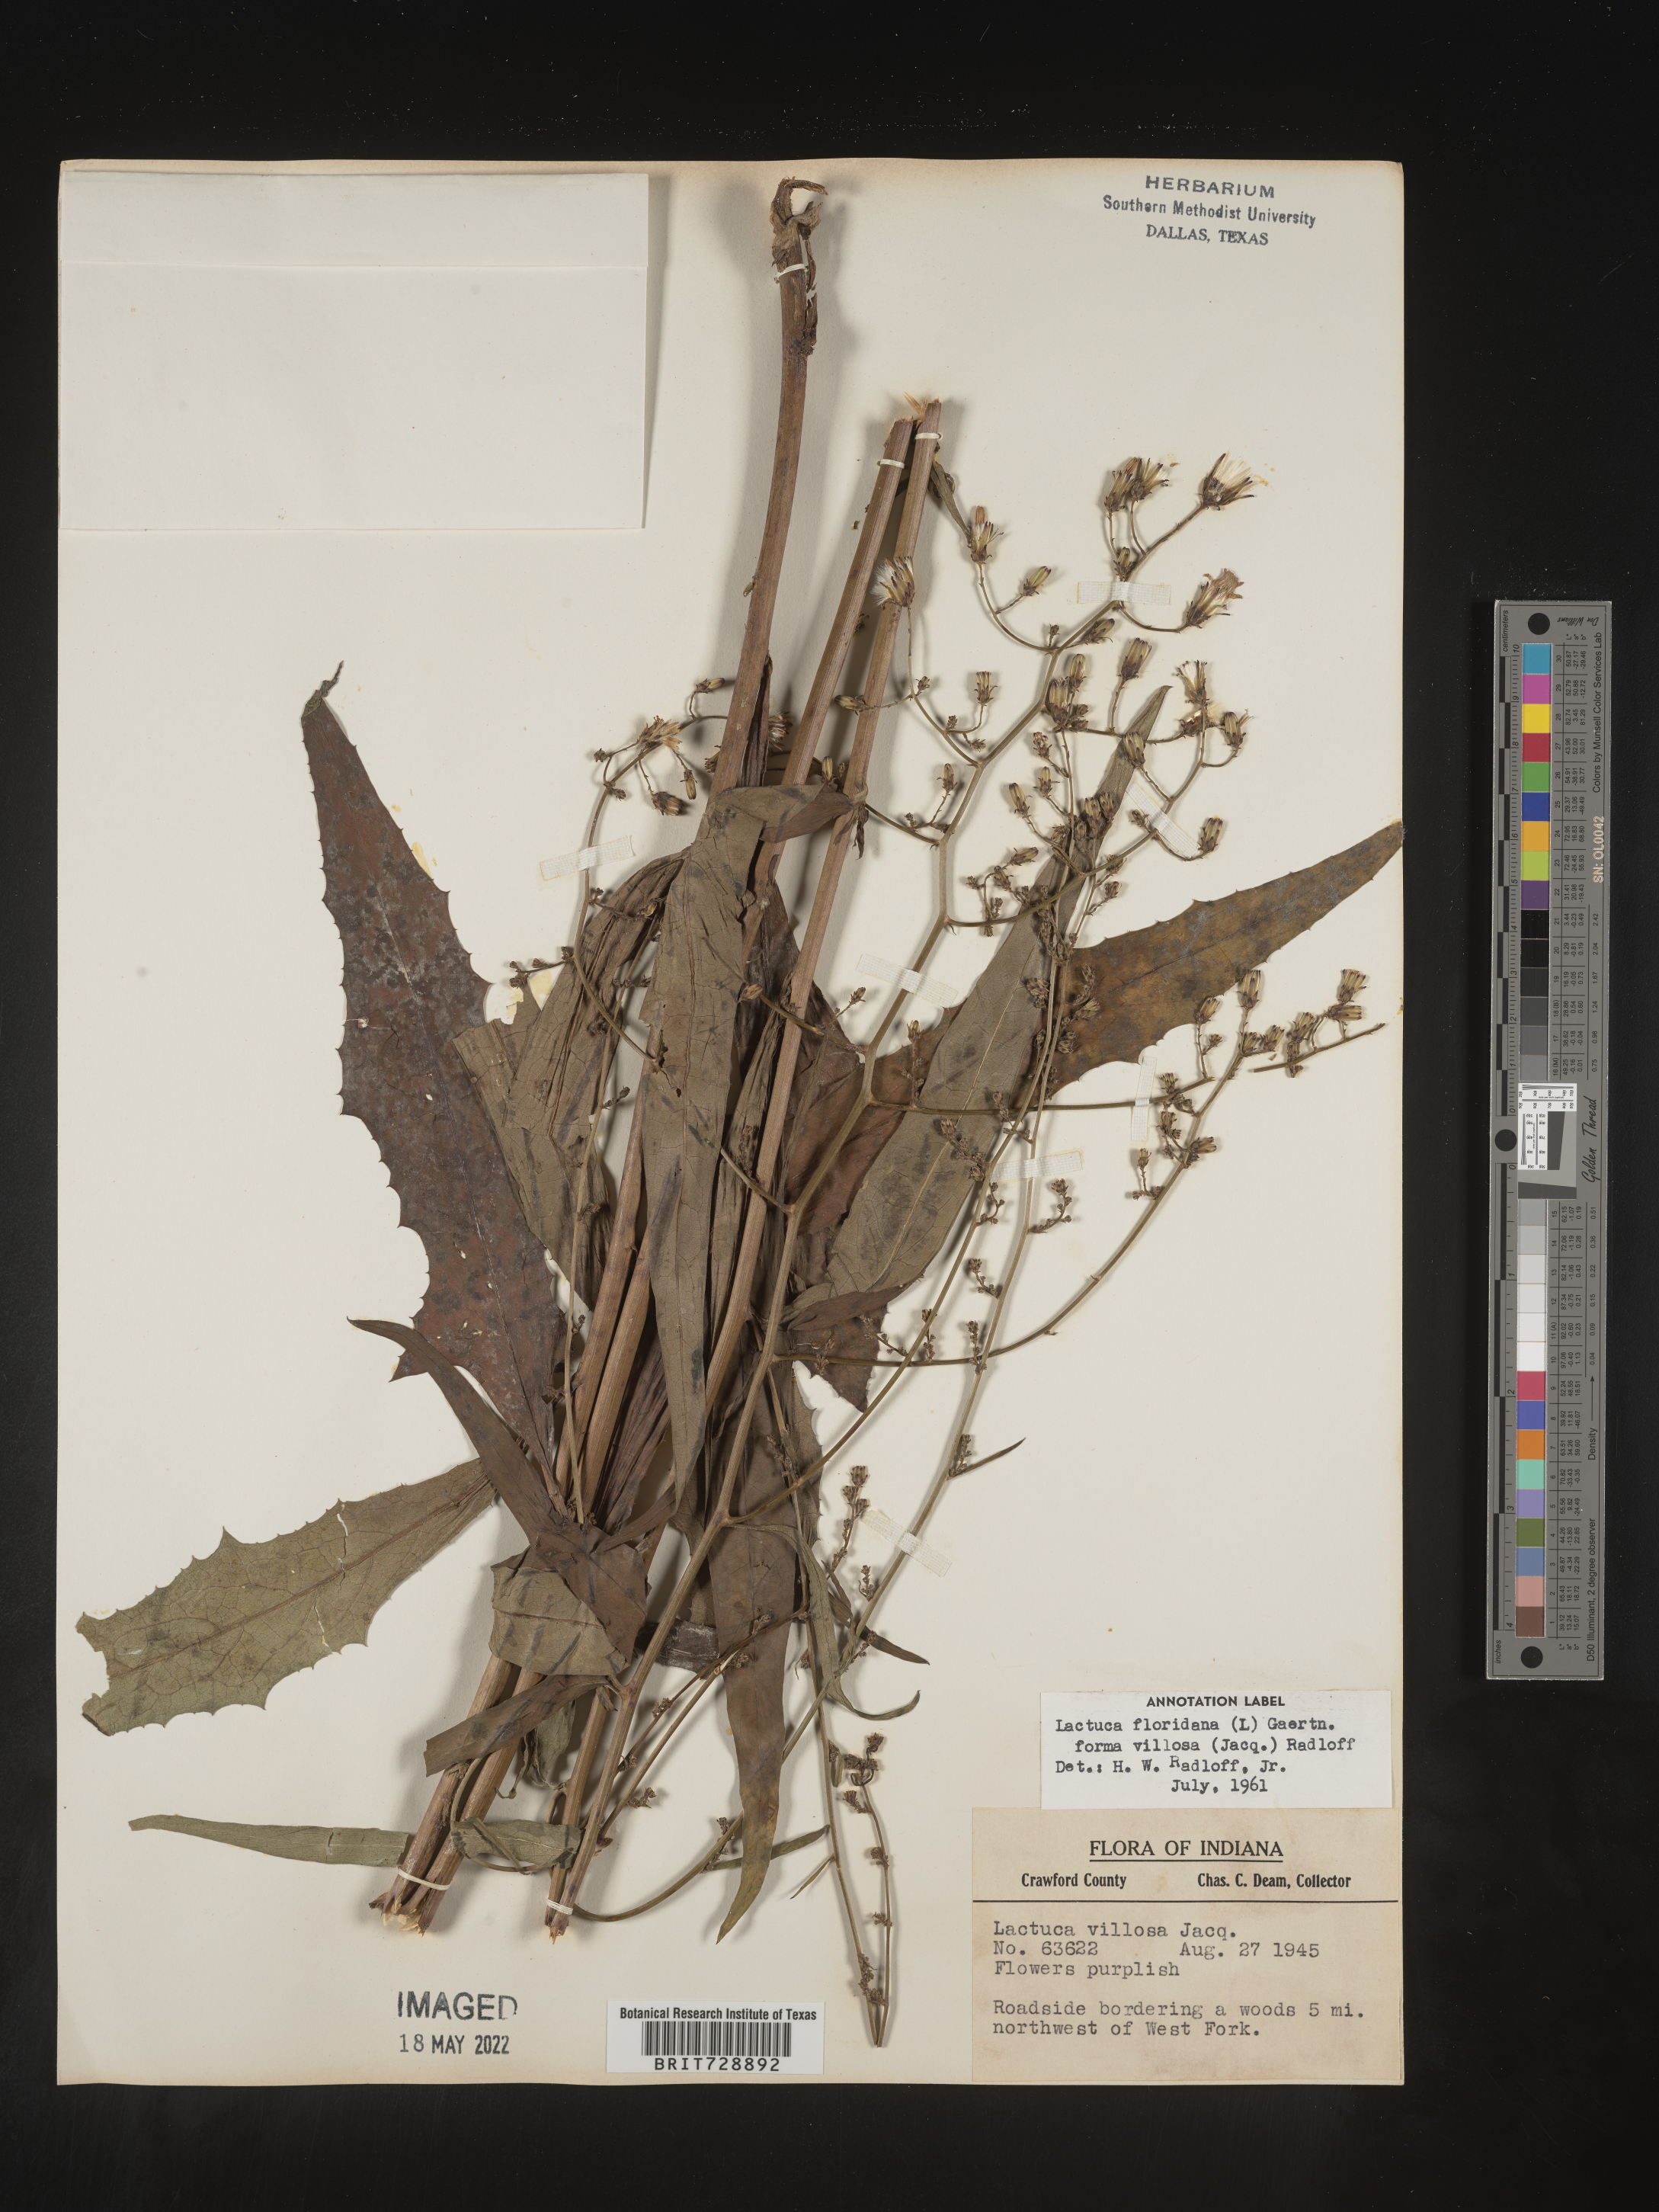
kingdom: Plantae
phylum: Tracheophyta
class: Magnoliopsida
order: Asterales
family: Asteraceae
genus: Lactuca
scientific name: Lactuca floridana
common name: Woodland lettuce
